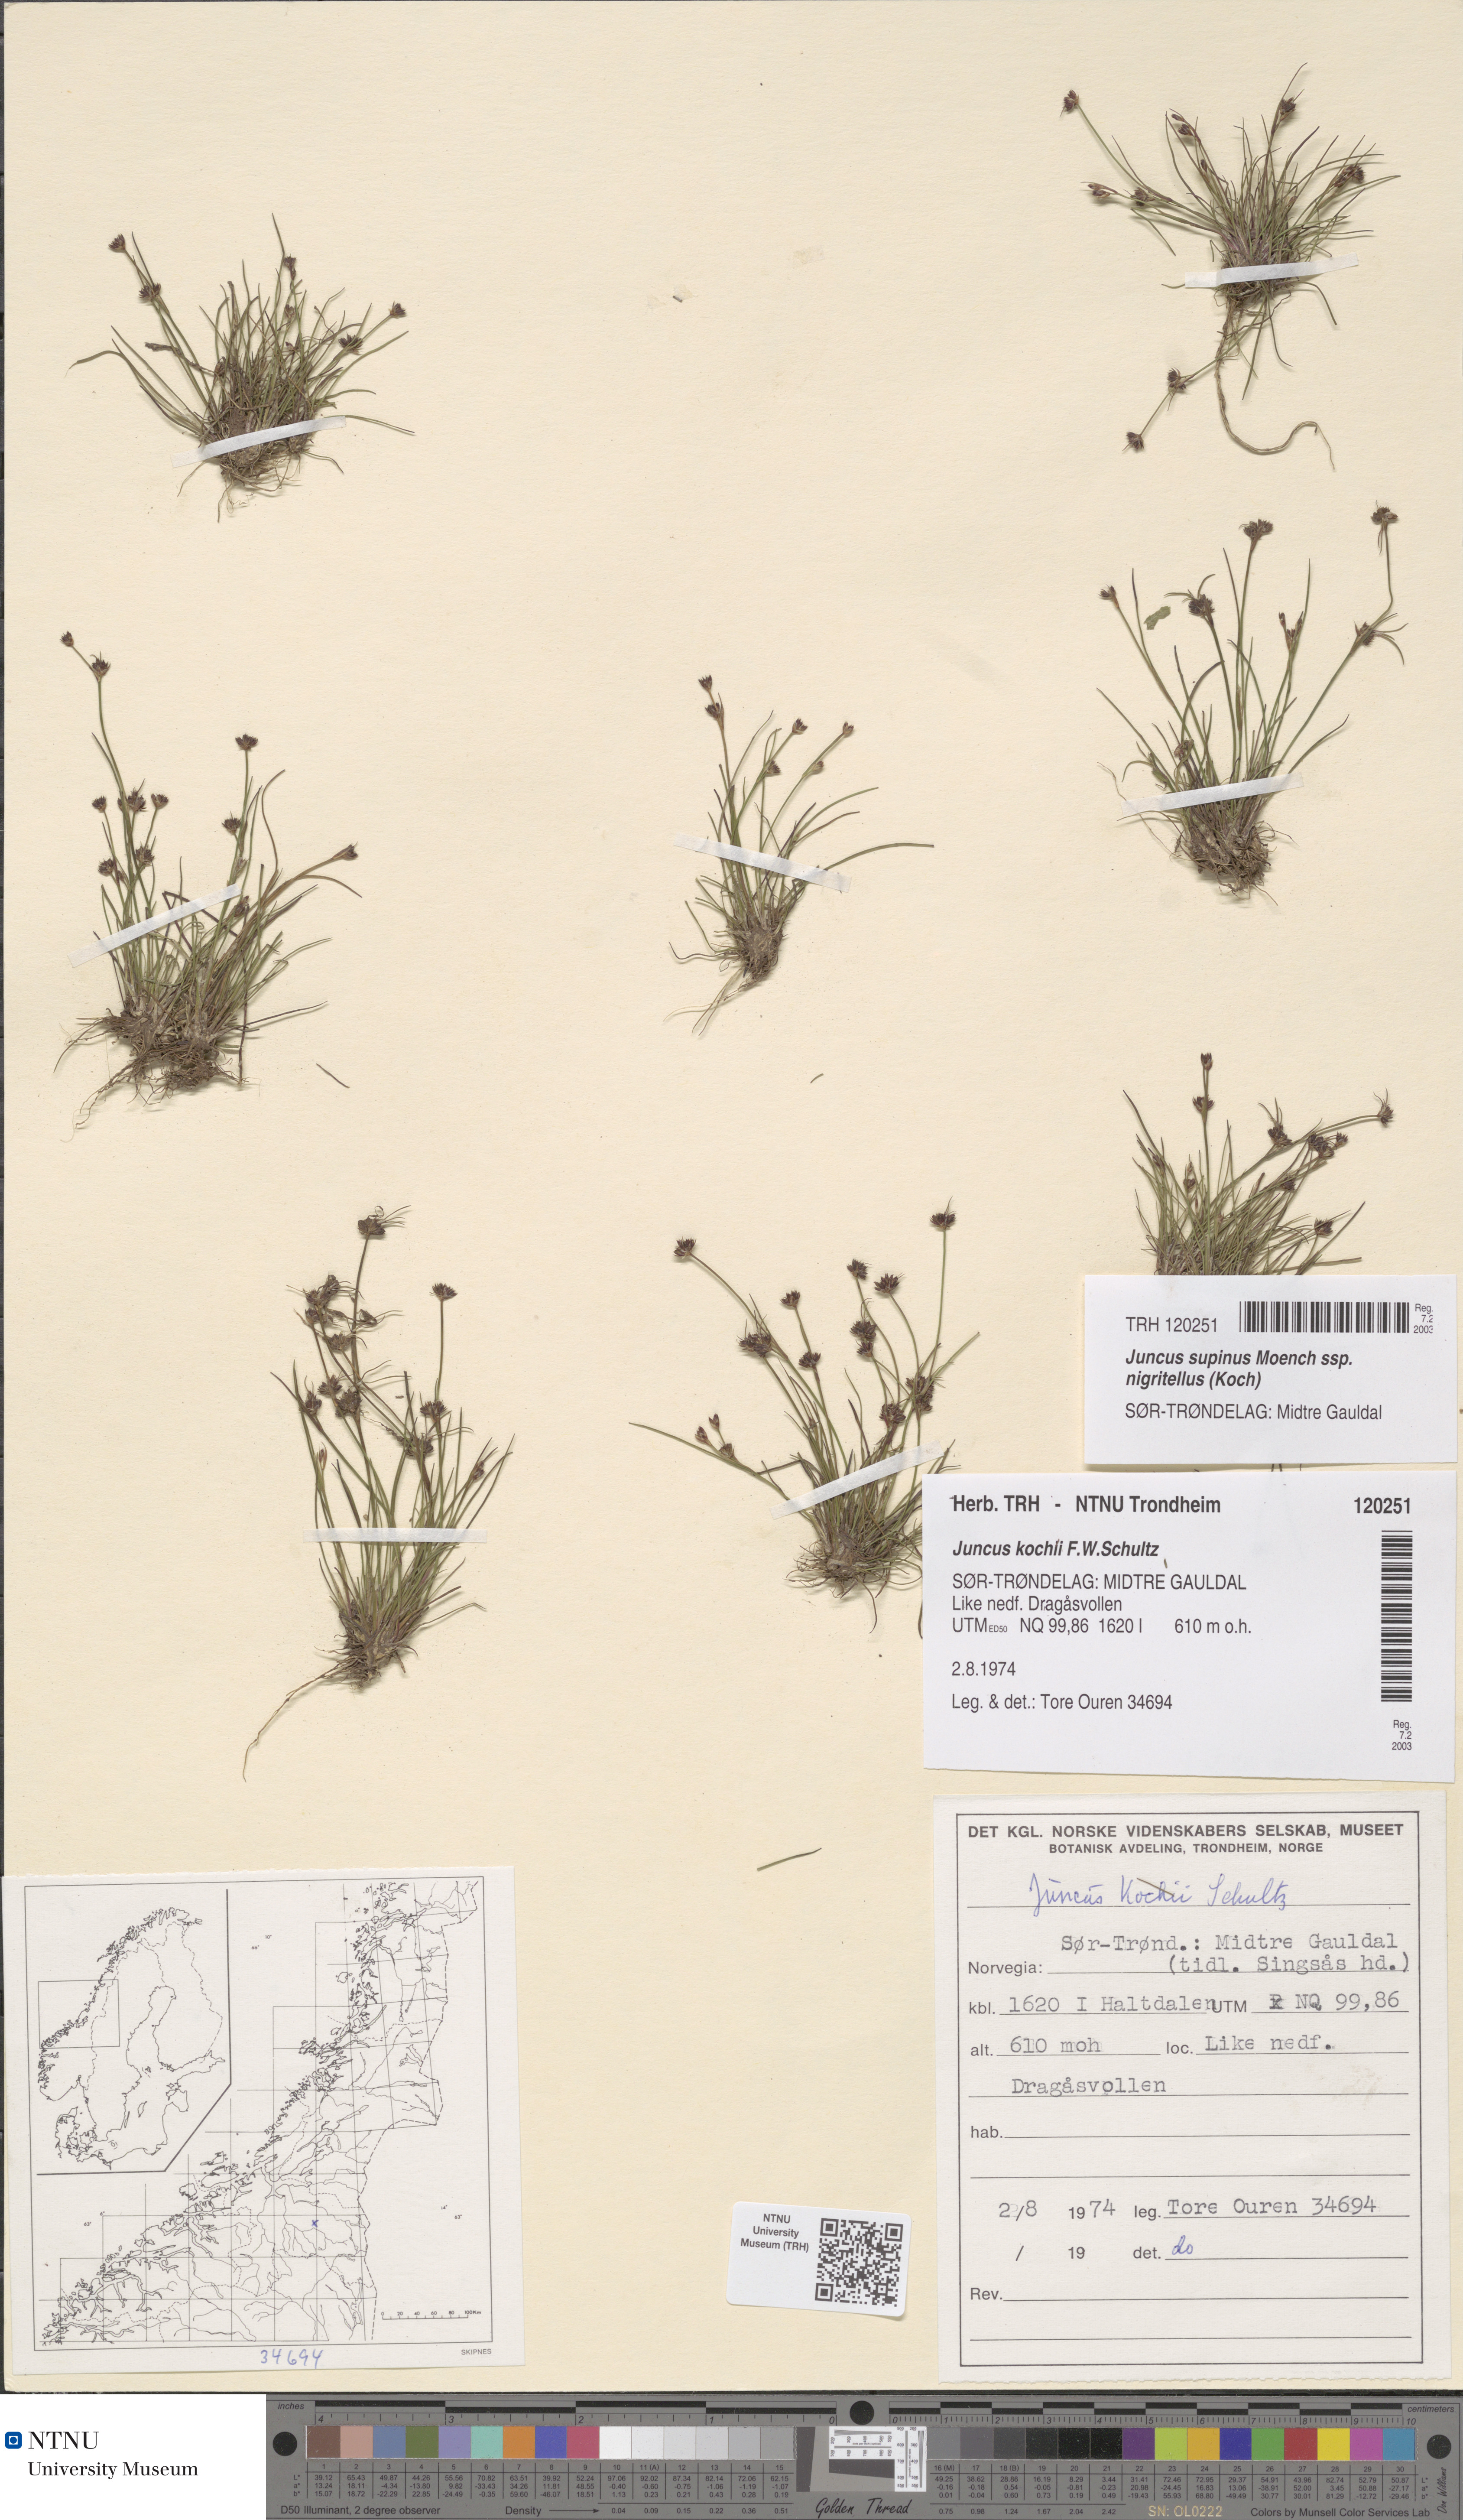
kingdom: Plantae
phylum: Tracheophyta
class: Liliopsida
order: Poales
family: Juncaceae
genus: Juncus
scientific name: Juncus bulbosus
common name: Bulbous rush
